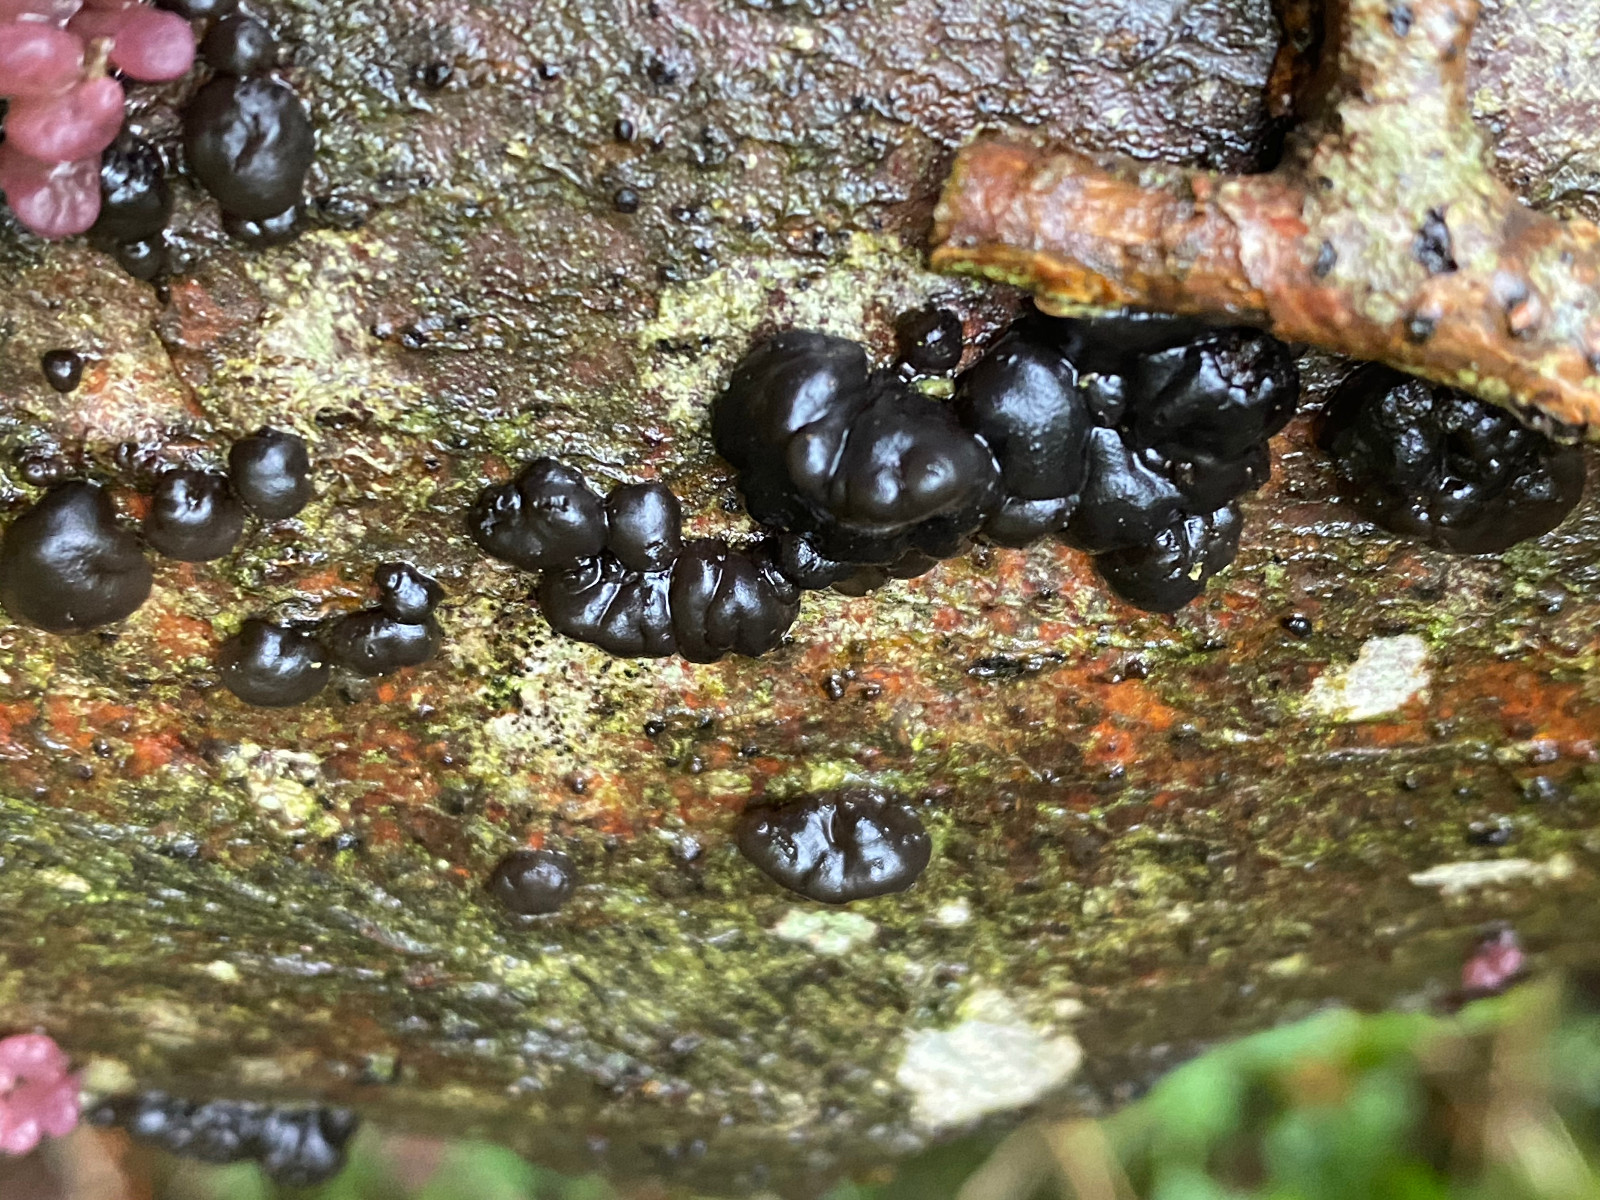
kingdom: Fungi
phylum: Basidiomycota
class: Agaricomycetes
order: Auriculariales
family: Auriculariaceae
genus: Exidia
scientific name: Exidia nigricans
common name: almindelig bævretop
